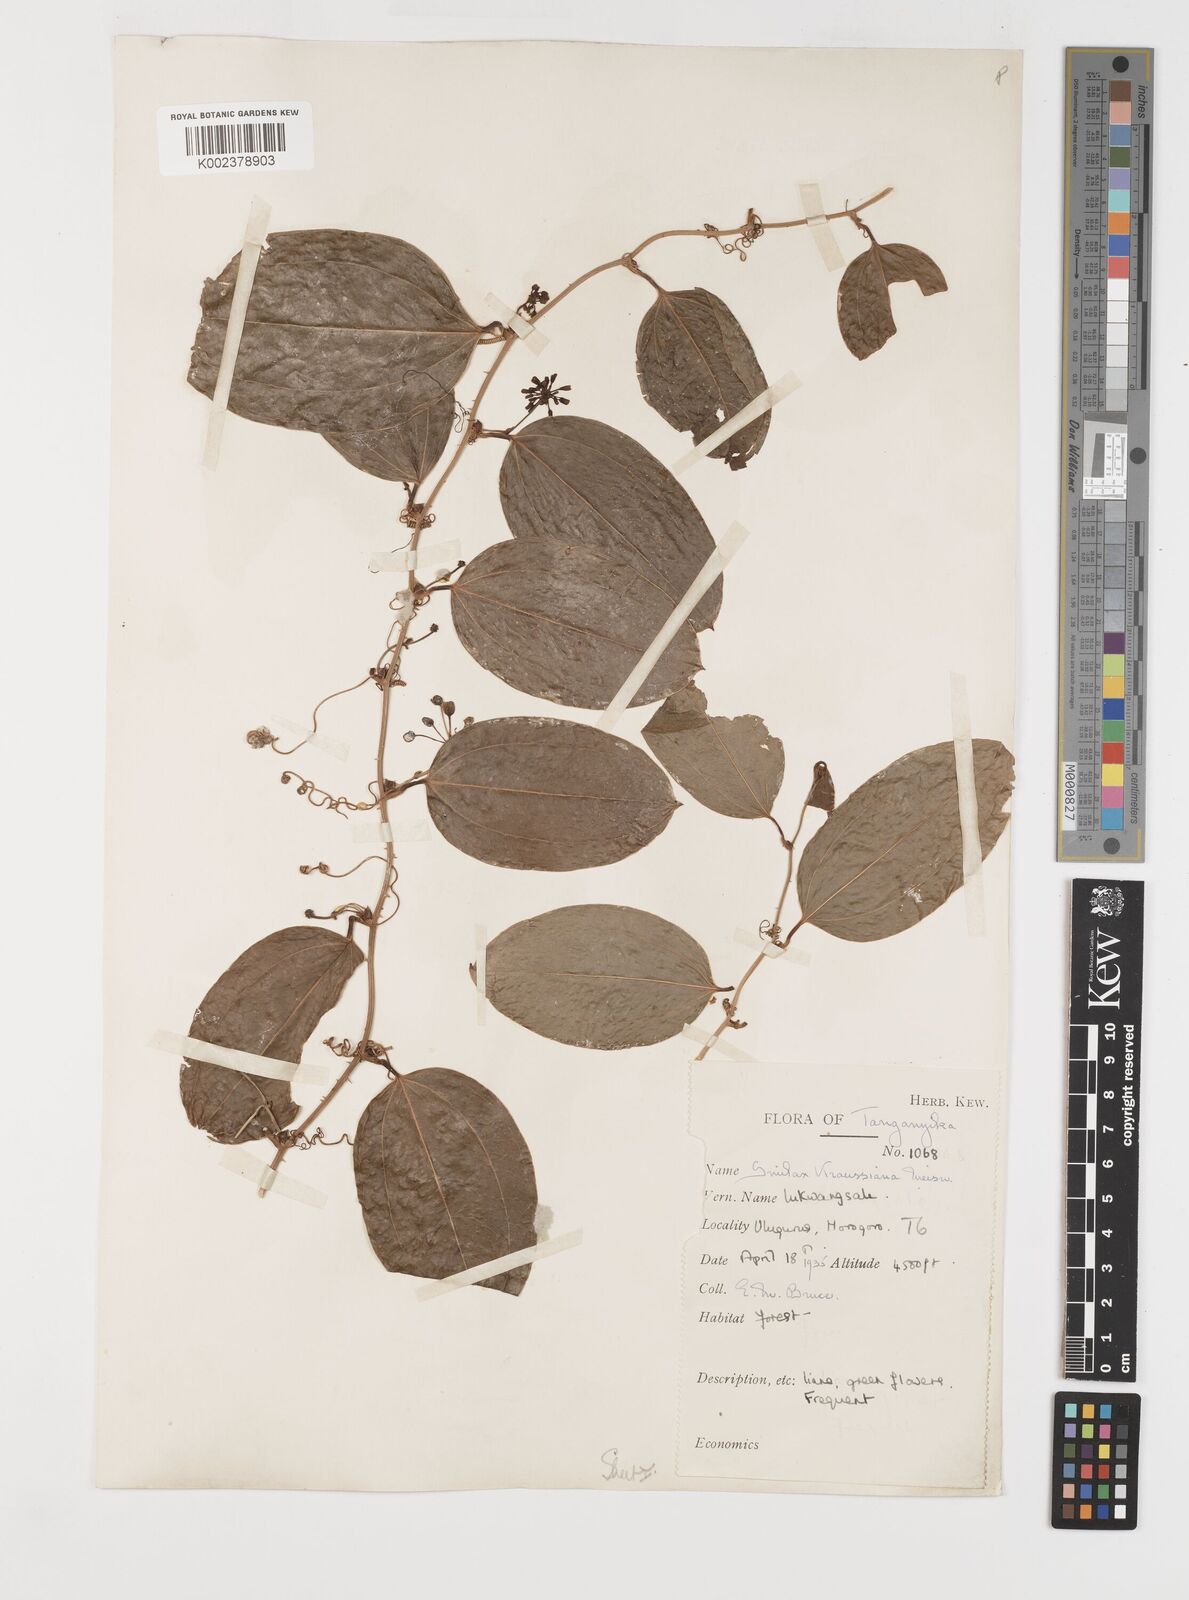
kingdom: Plantae
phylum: Tracheophyta
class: Liliopsida
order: Liliales
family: Smilacaceae
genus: Smilax
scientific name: Smilax anceps
